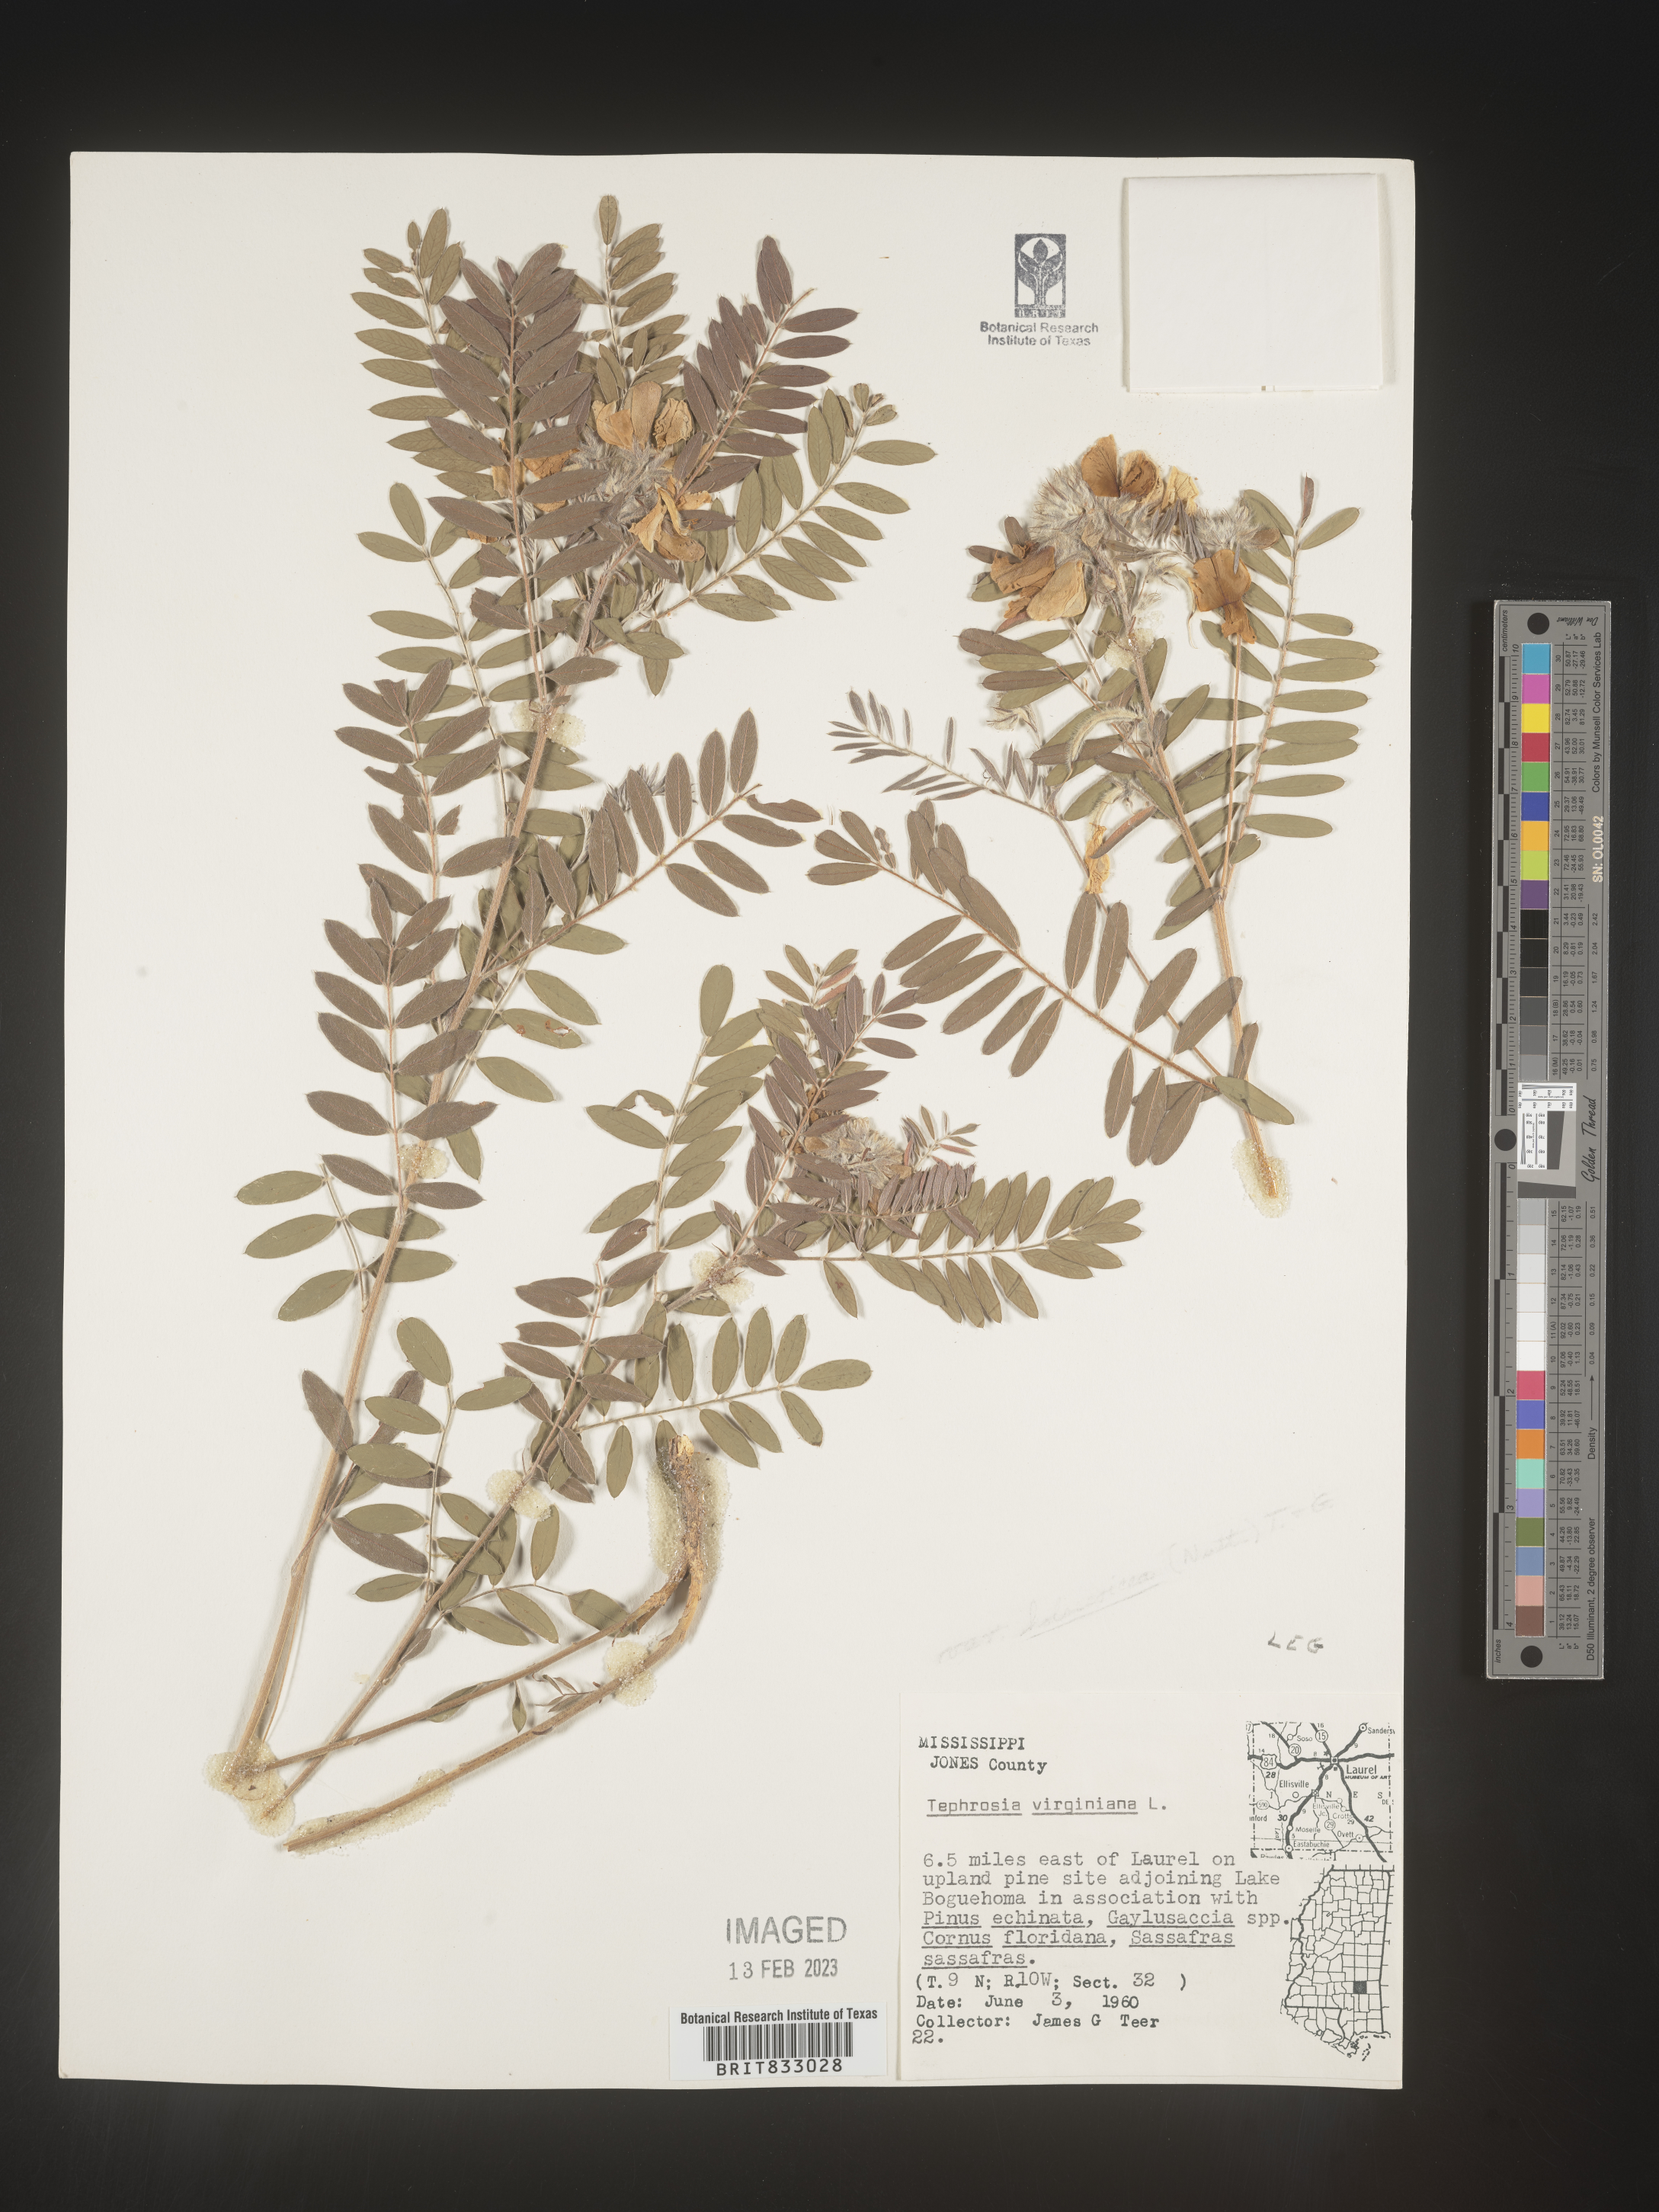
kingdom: Plantae
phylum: Tracheophyta
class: Magnoliopsida
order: Fabales
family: Fabaceae
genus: Tephrosia
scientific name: Tephrosia virginiana
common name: Rabbit-pea
